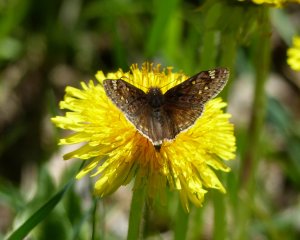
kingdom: Animalia
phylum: Arthropoda
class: Insecta
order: Lepidoptera
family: Hesperiidae
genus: Gesta
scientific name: Gesta
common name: Juvenal's Duskywing
